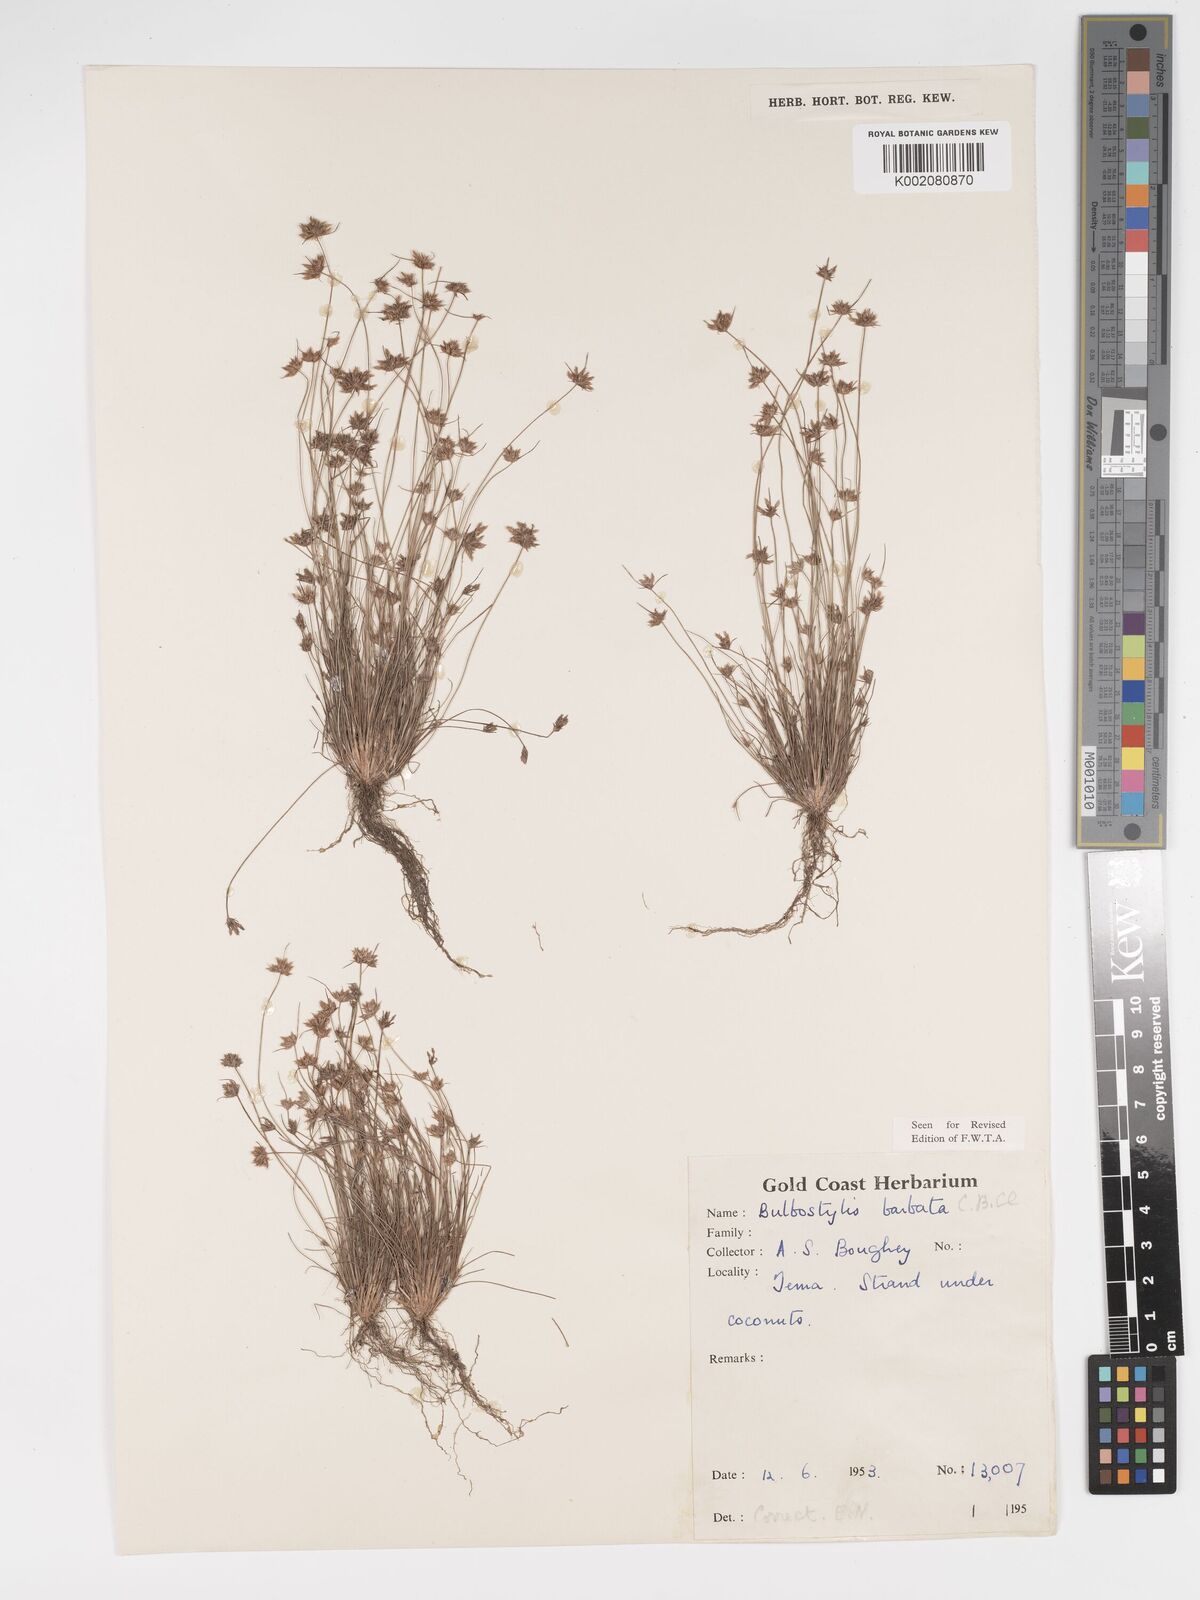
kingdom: Plantae
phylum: Tracheophyta
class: Liliopsida
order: Poales
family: Cyperaceae
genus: Bulbostylis
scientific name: Bulbostylis barbata
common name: Watergrass
